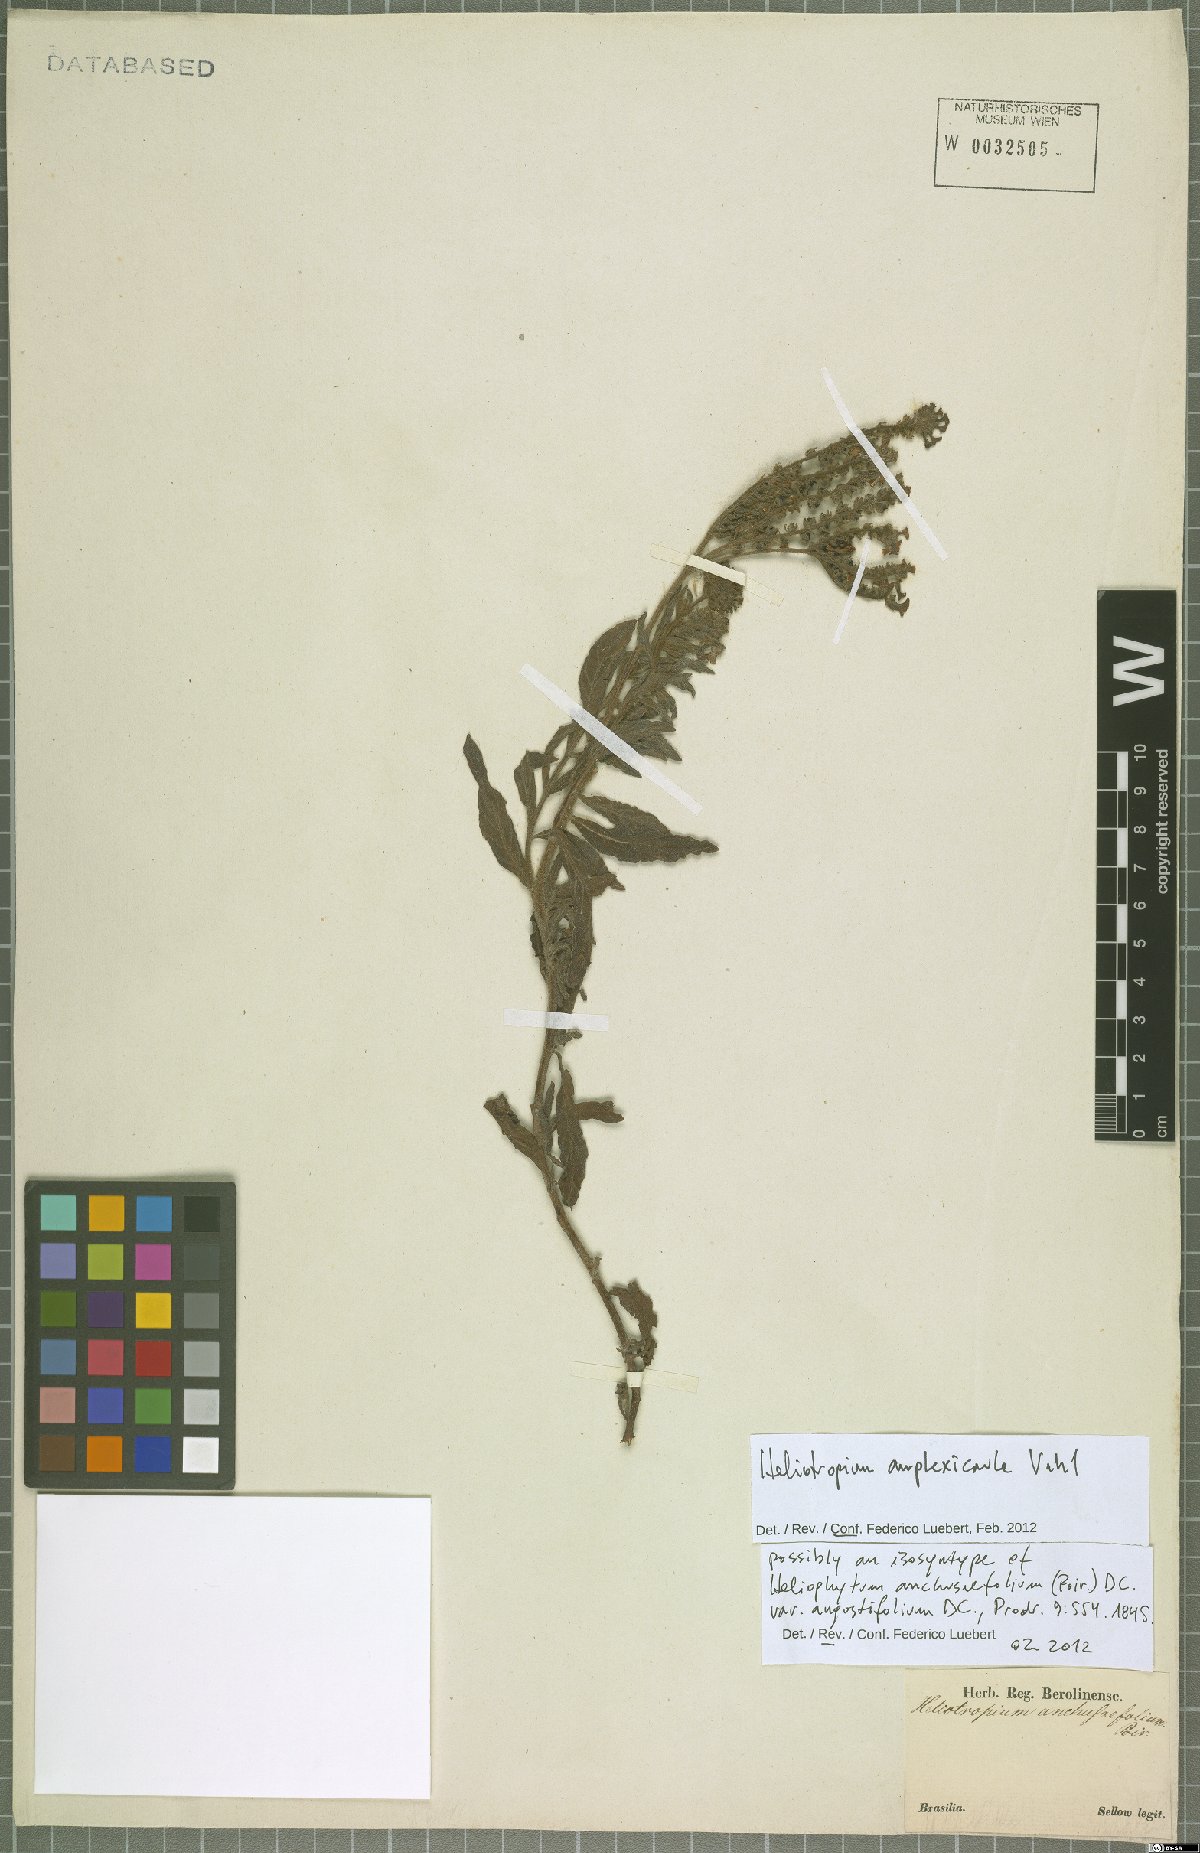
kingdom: Plantae
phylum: Tracheophyta
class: Magnoliopsida
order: Boraginales
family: Heliotropiaceae
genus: Heliotropium
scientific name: Heliotropium amplexicaule
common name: Clasping heliotrope
